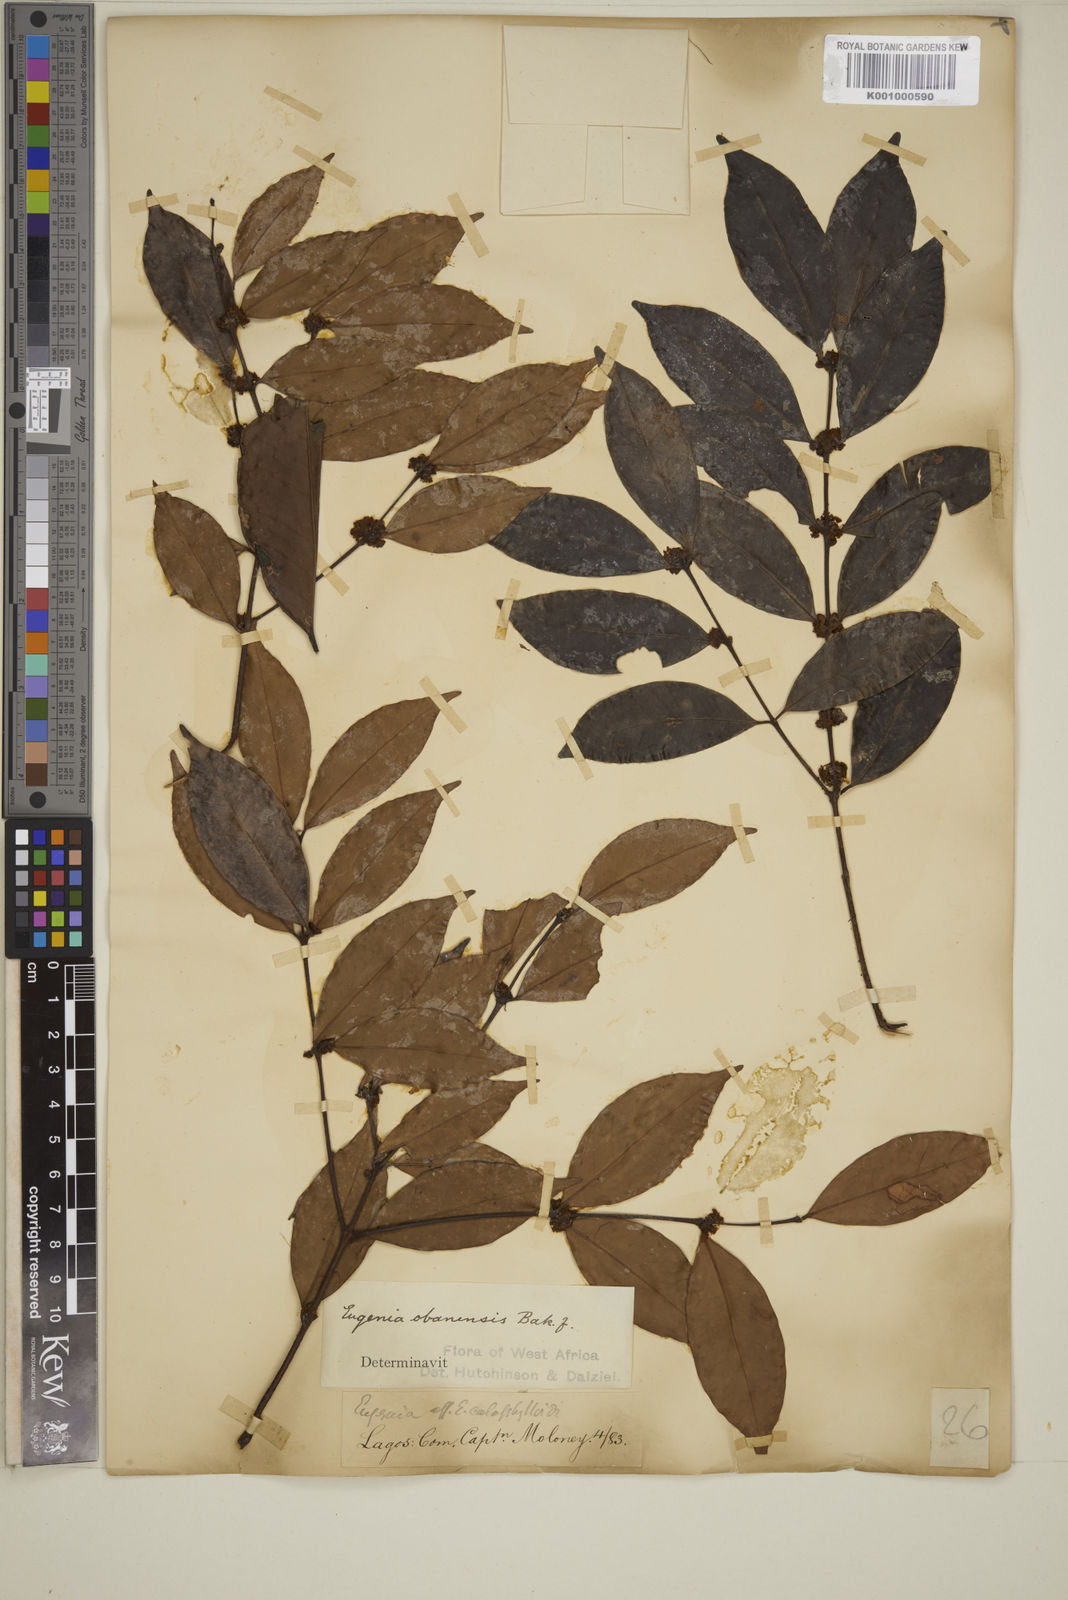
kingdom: Plantae
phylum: Tracheophyta
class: Magnoliopsida
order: Myrtales
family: Myrtaceae
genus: Eugenia
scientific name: Eugenia obanensis
